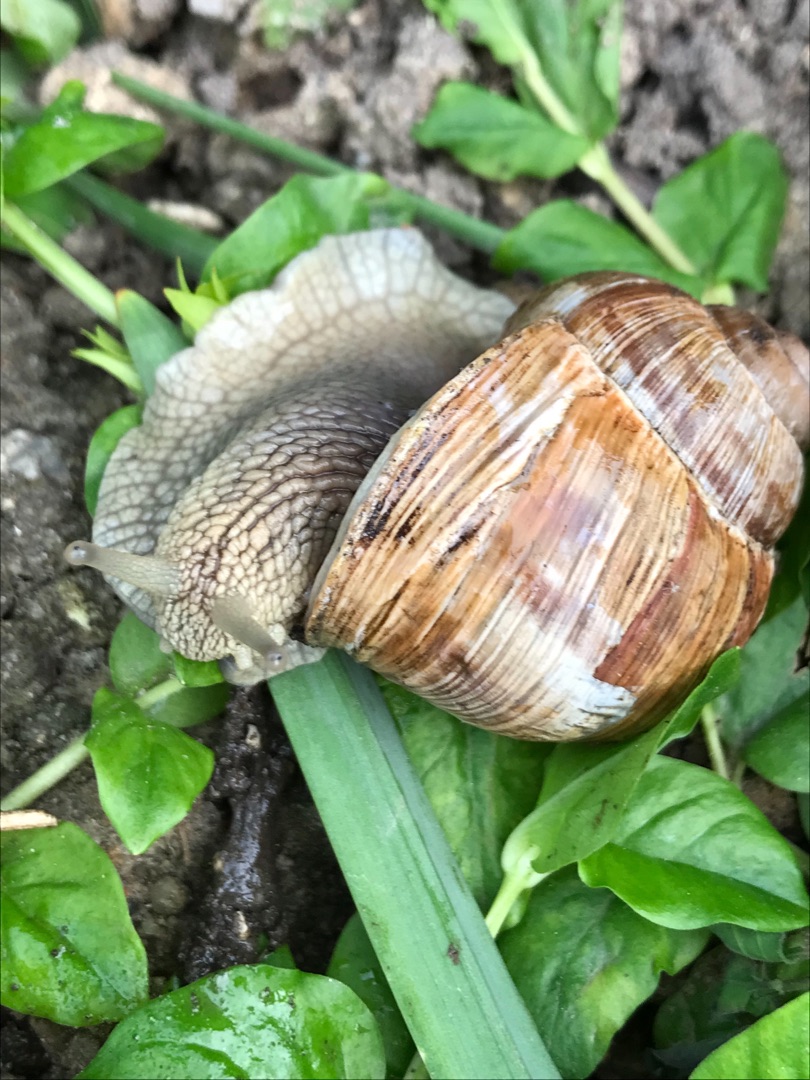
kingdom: Animalia
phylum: Mollusca
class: Gastropoda
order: Stylommatophora
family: Helicidae
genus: Helix
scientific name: Helix pomatia
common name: Vinbjergsnegl
